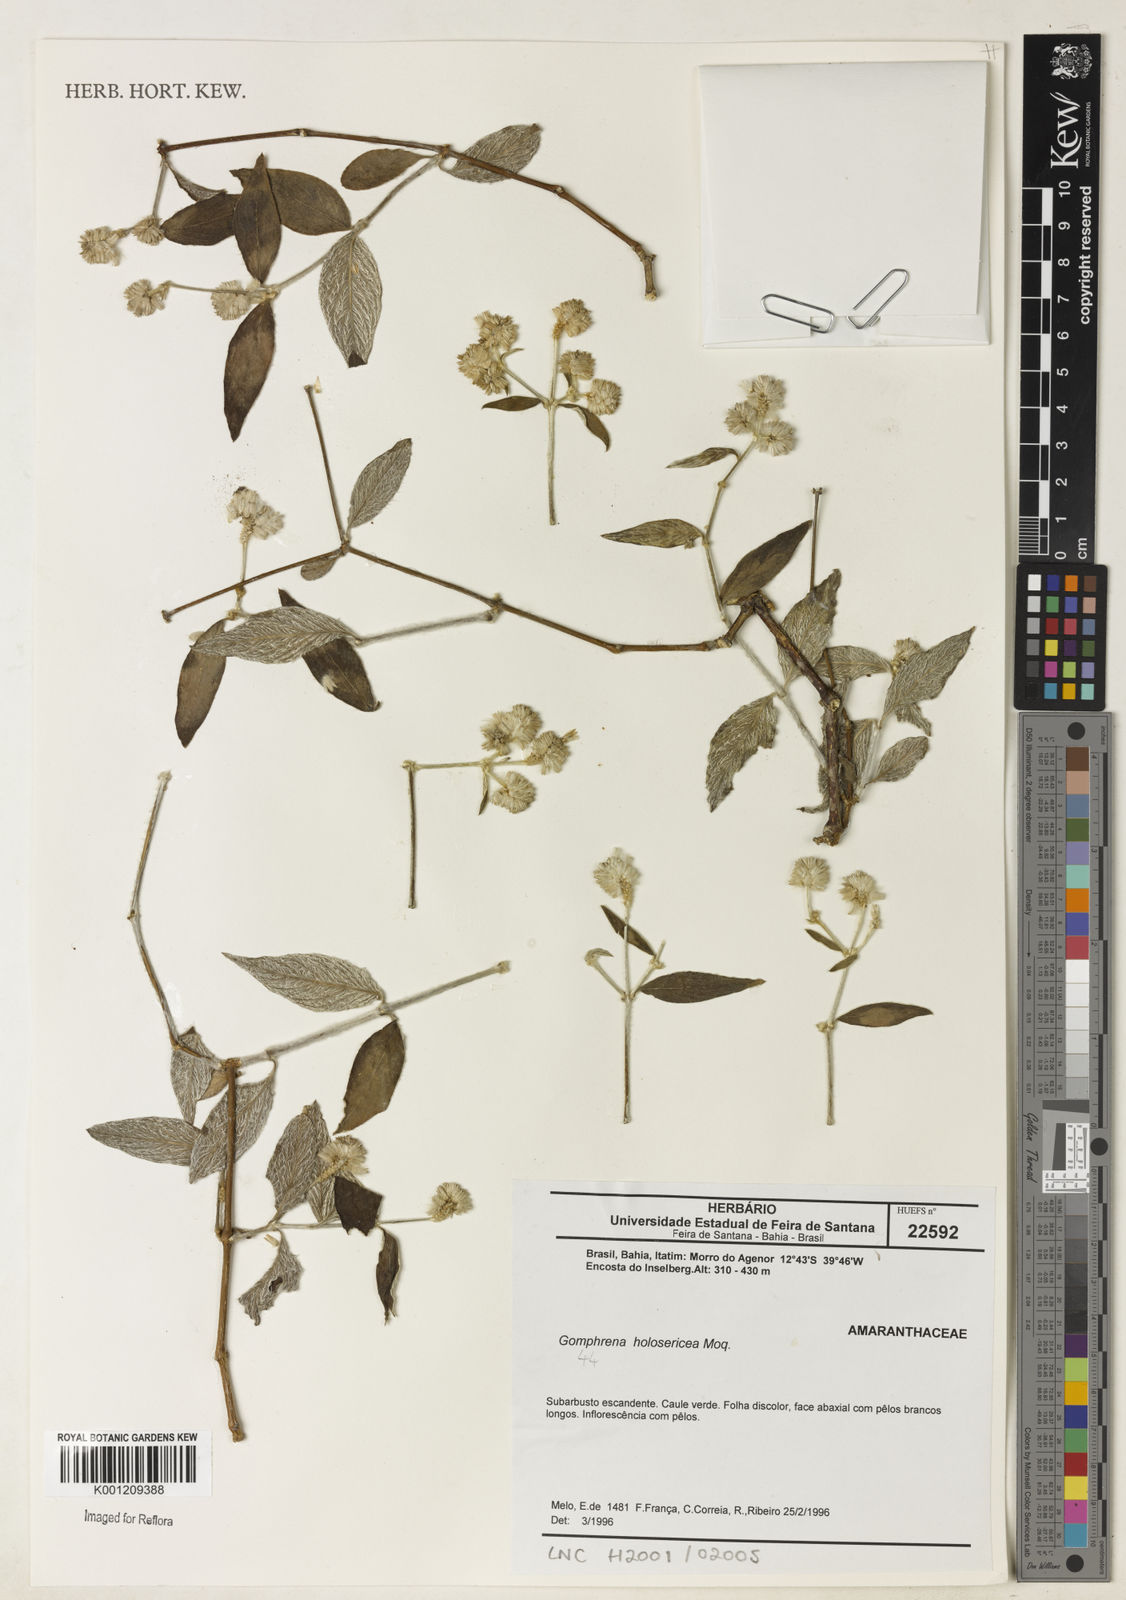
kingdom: Plantae
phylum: Tracheophyta
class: Magnoliopsida
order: Caryophyllales
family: Amaranthaceae
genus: Gomphrena
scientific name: Gomphrena vaga
